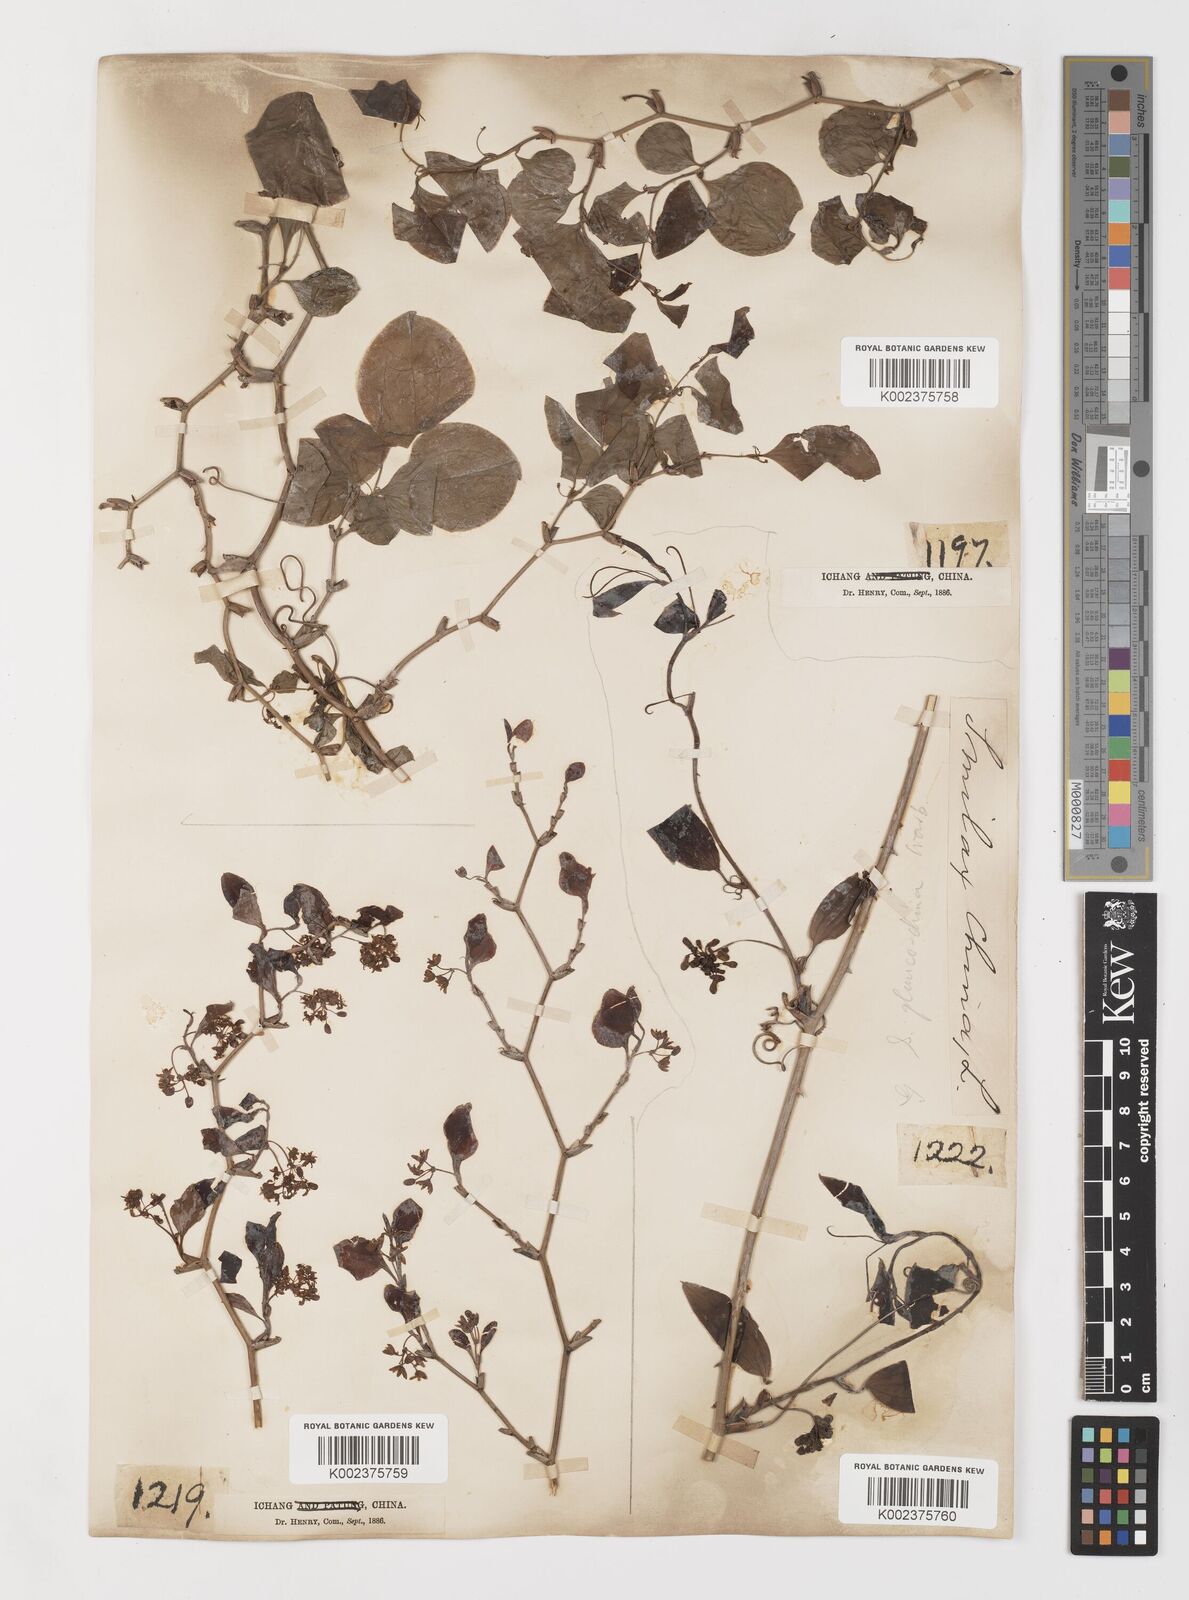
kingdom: Plantae
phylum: Tracheophyta
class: Liliopsida
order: Liliales
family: Smilacaceae
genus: Smilax
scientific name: Smilax china
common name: Chinaroot
